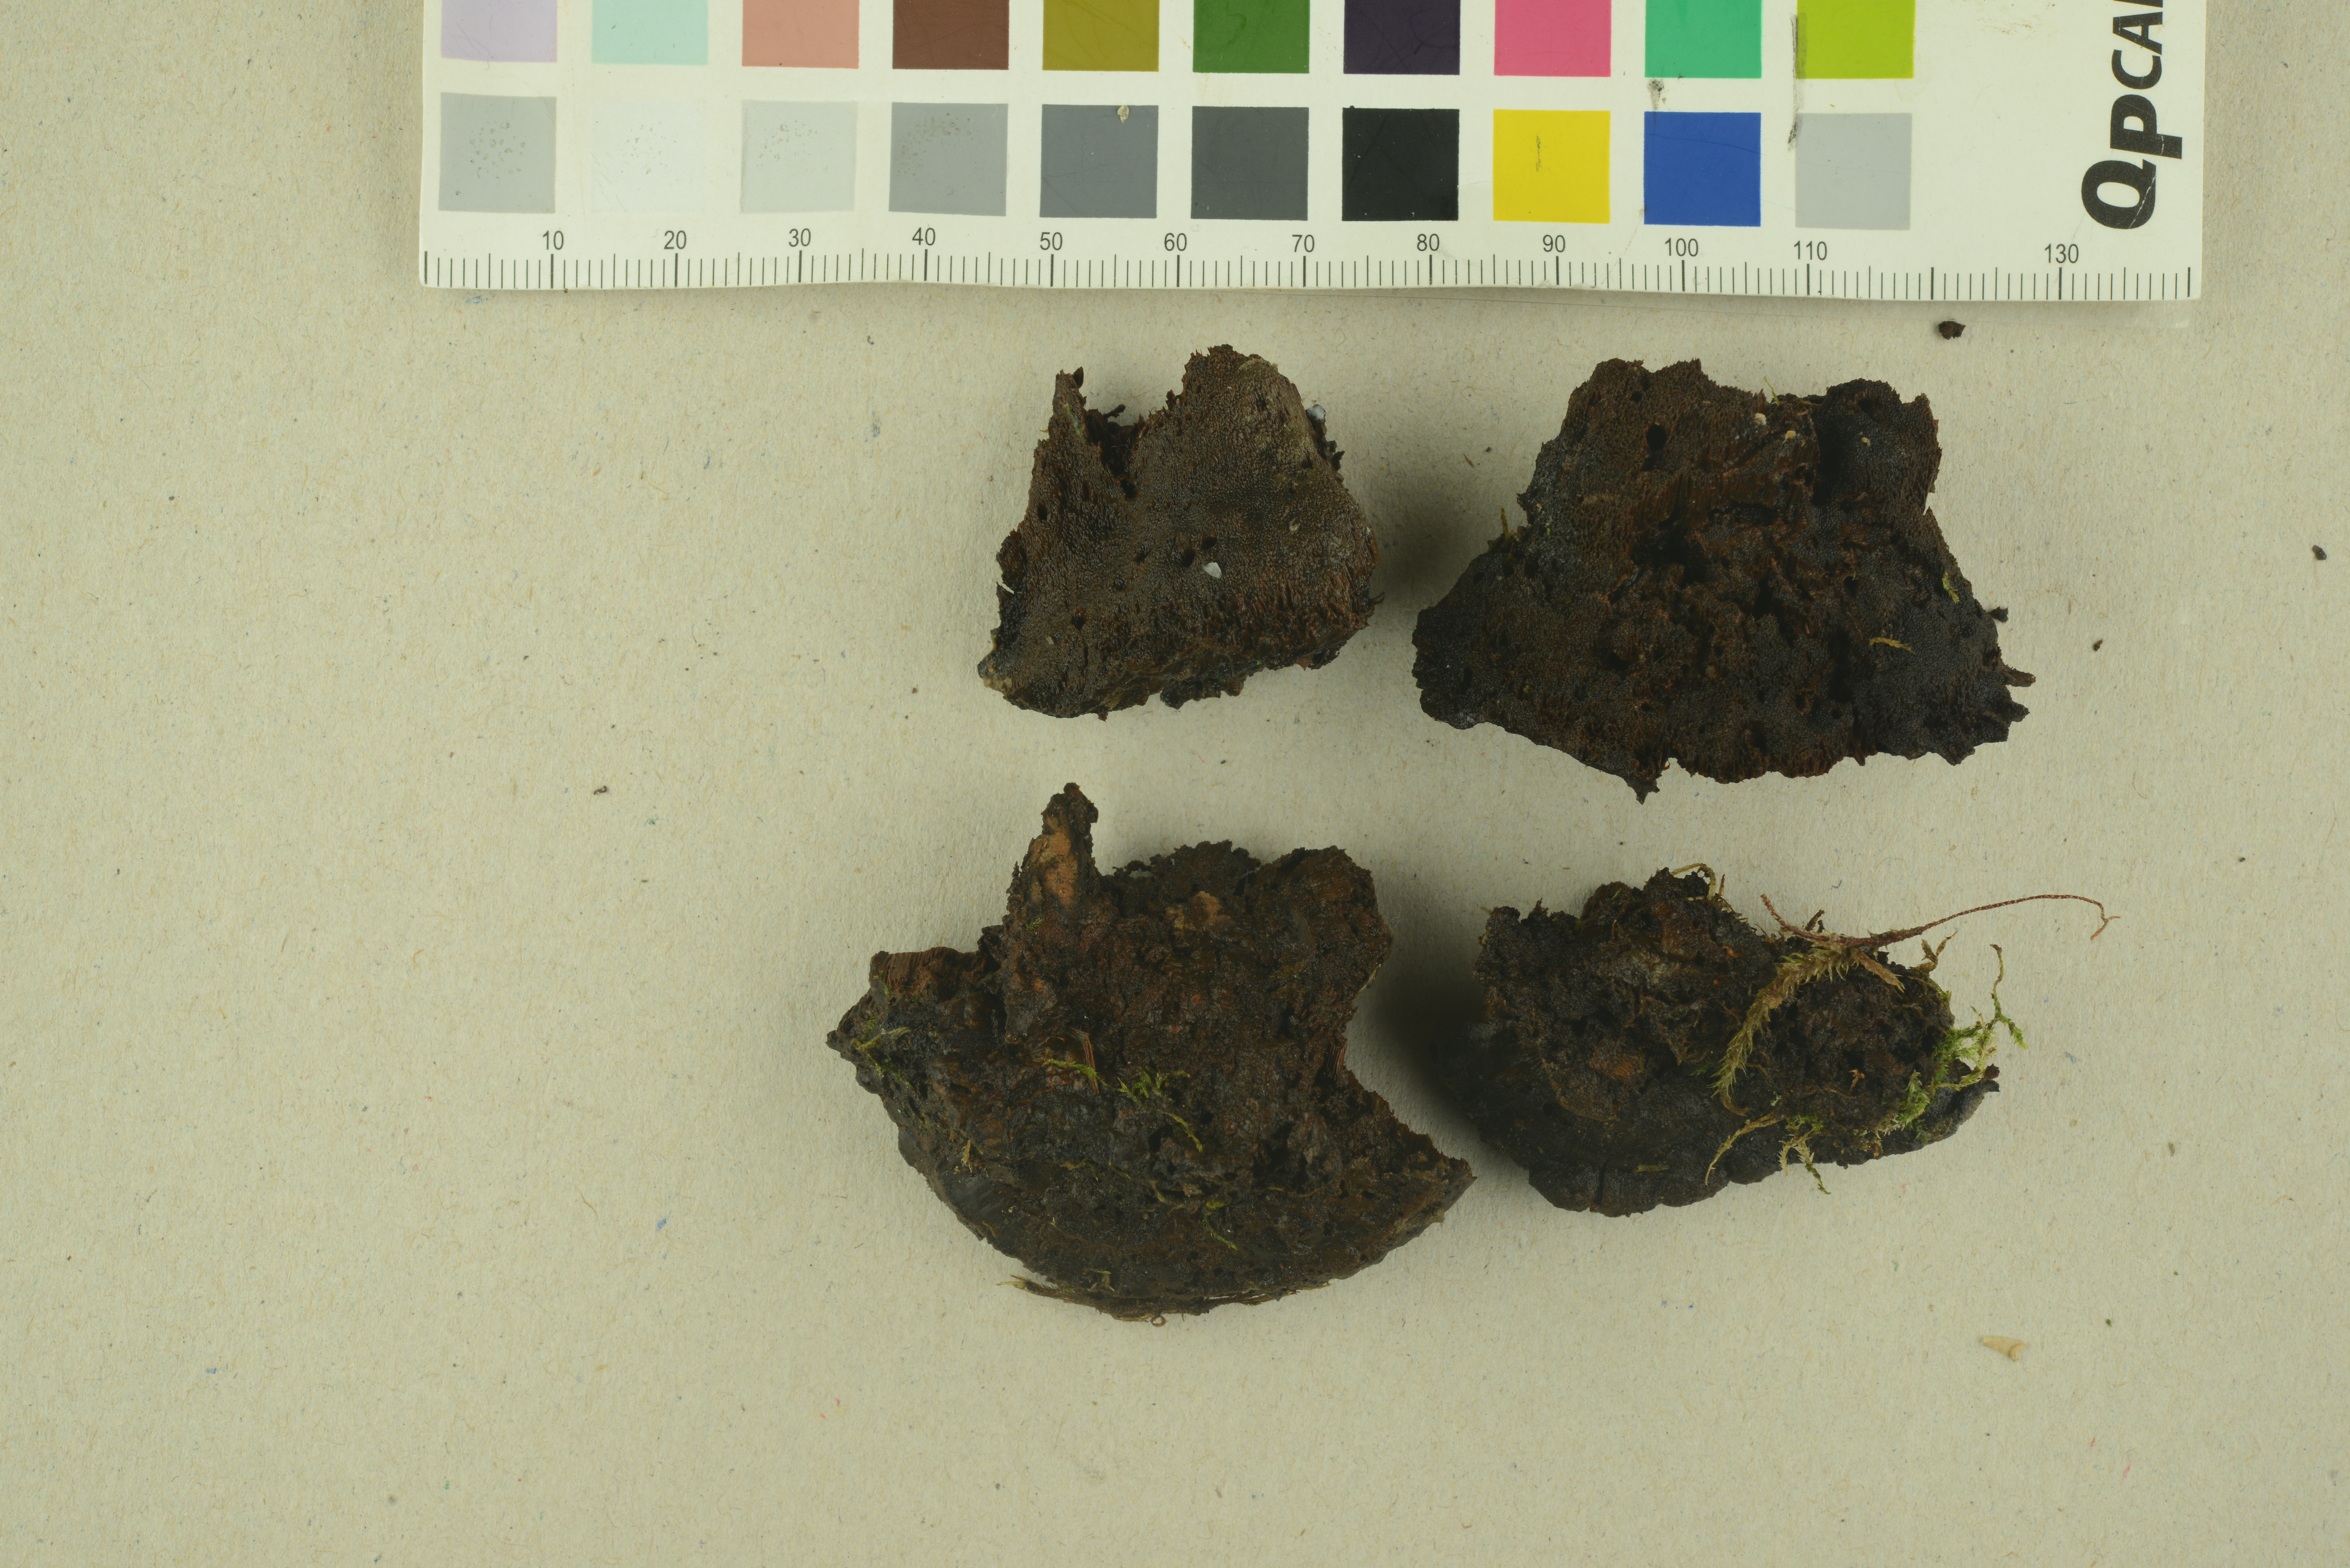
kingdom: Fungi
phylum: Basidiomycota
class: Agaricomycetes
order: Hymenochaetales
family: Hymenochaetaceae
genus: Xanthoporia
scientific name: Xanthoporia radiata
